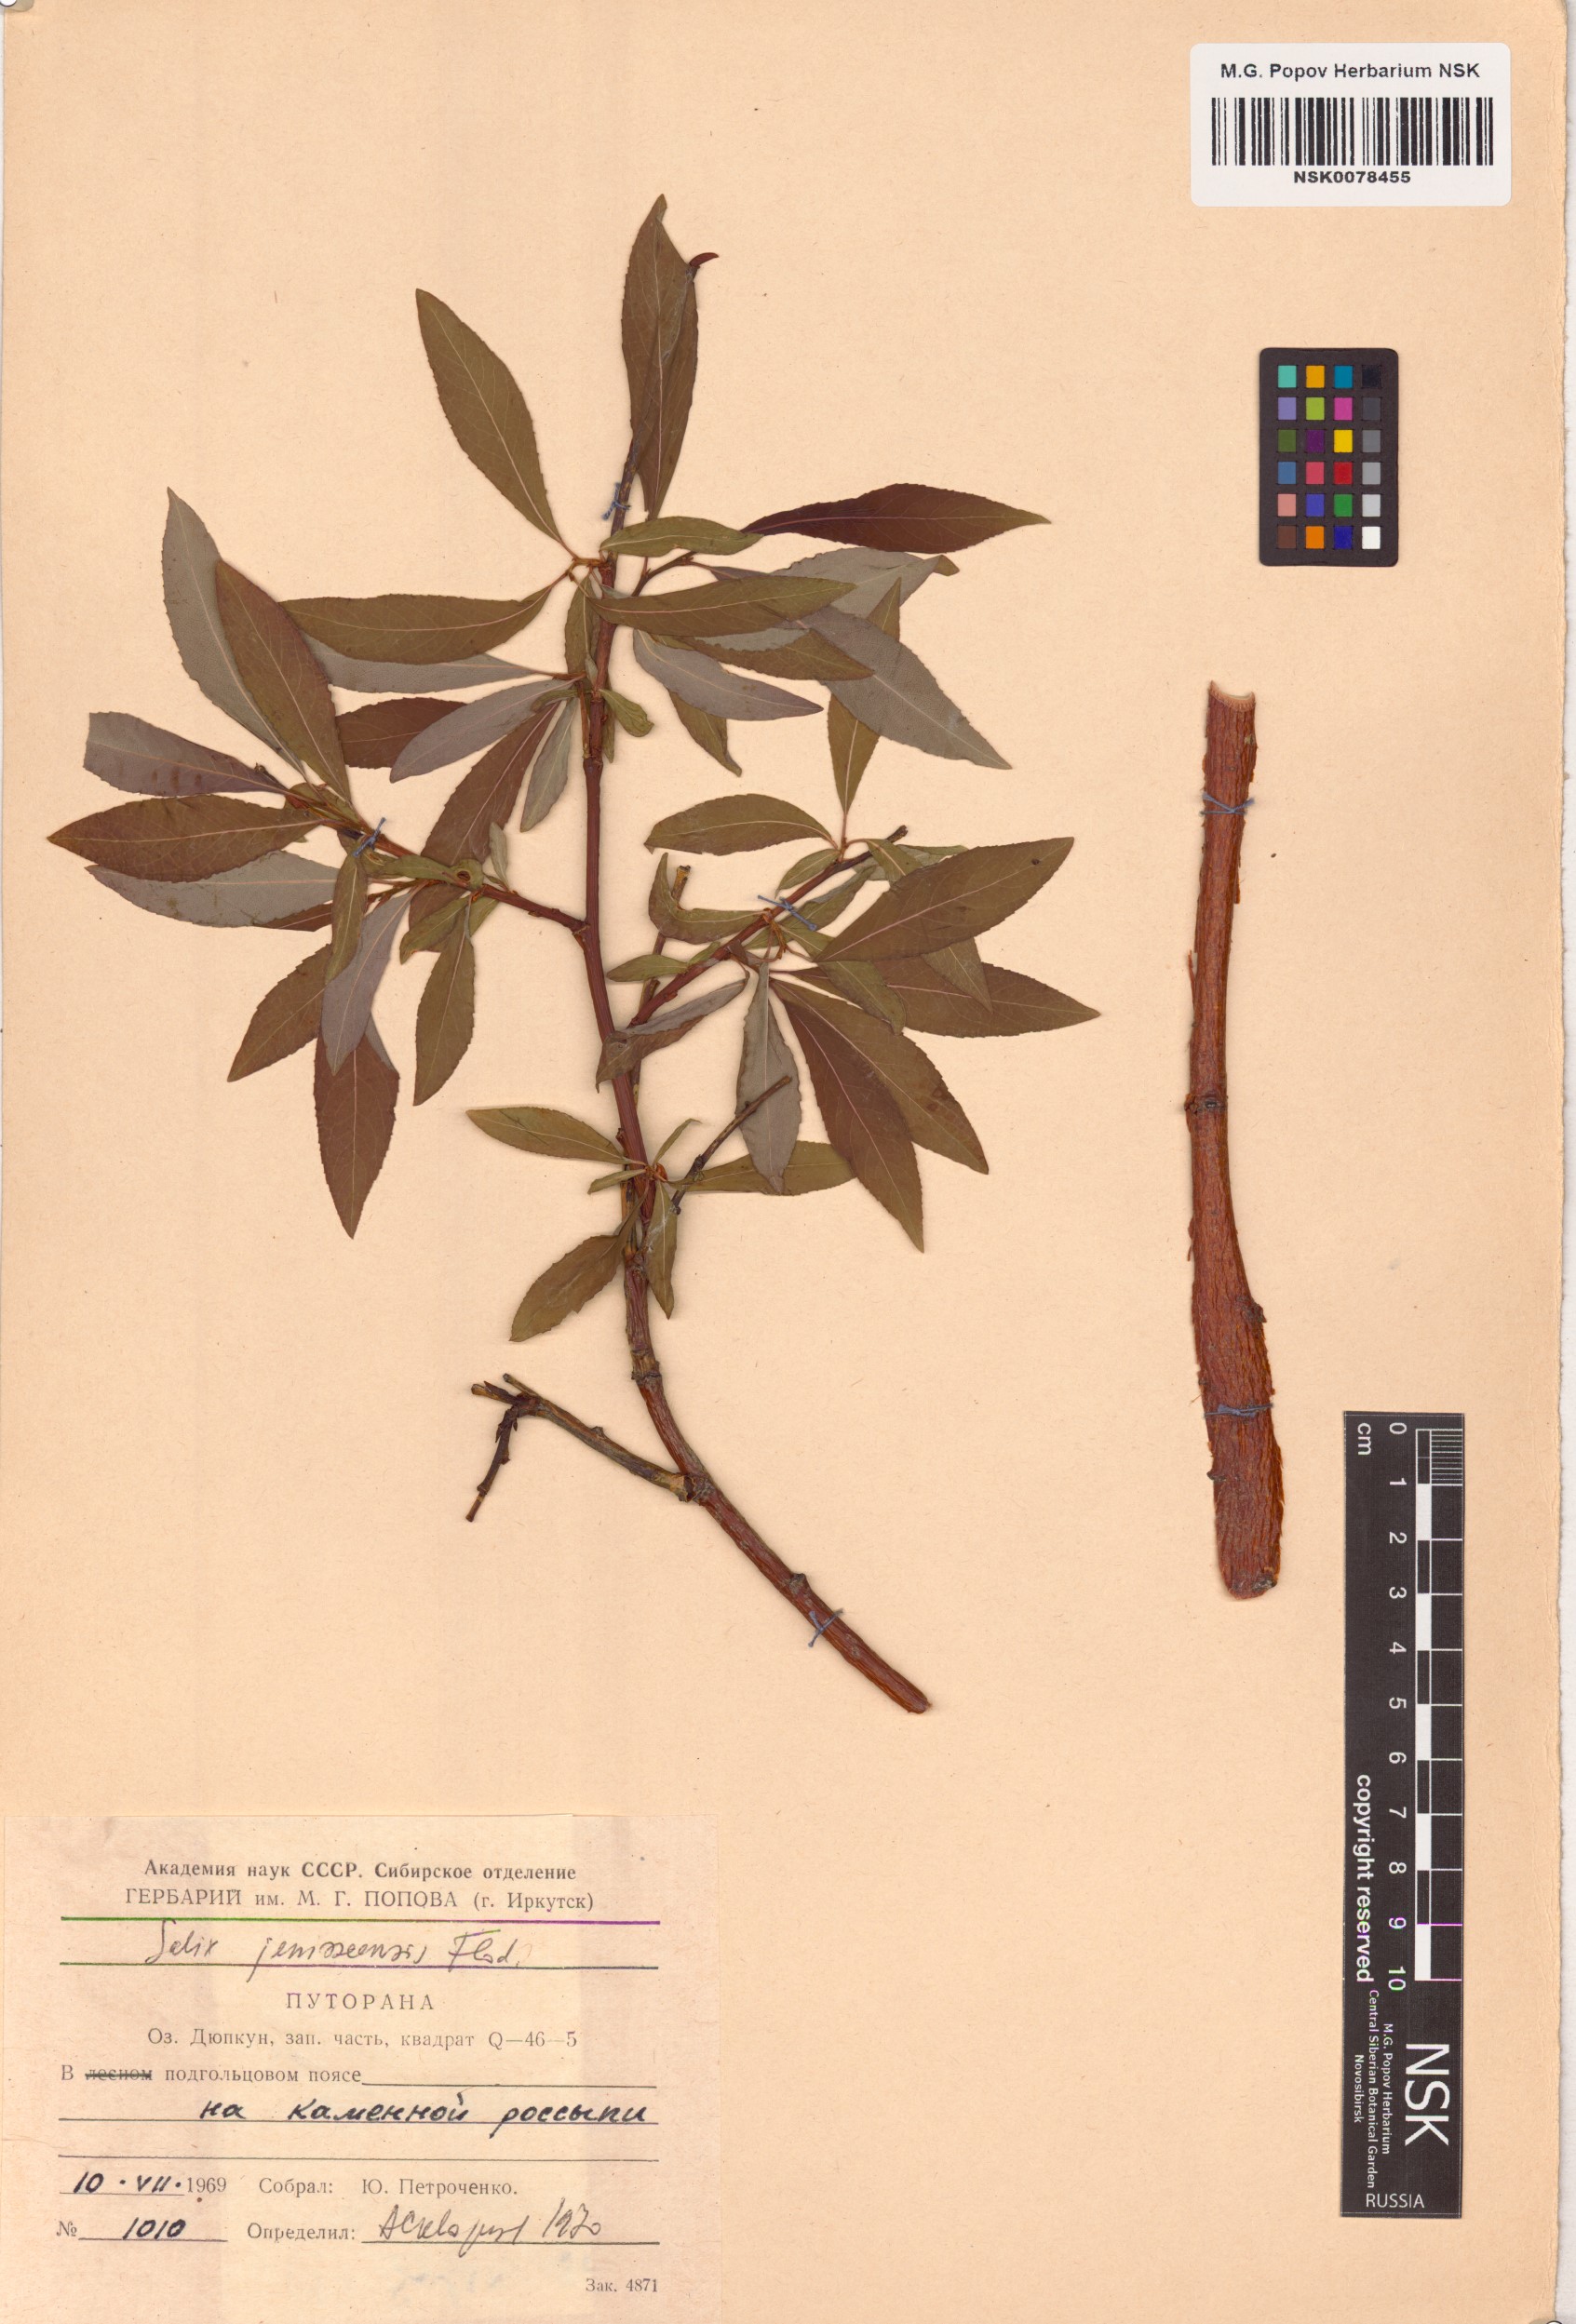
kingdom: Plantae
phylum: Tracheophyta
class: Magnoliopsida
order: Malpighiales
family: Salicaceae
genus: Salix
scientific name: Salix jenisseensis
